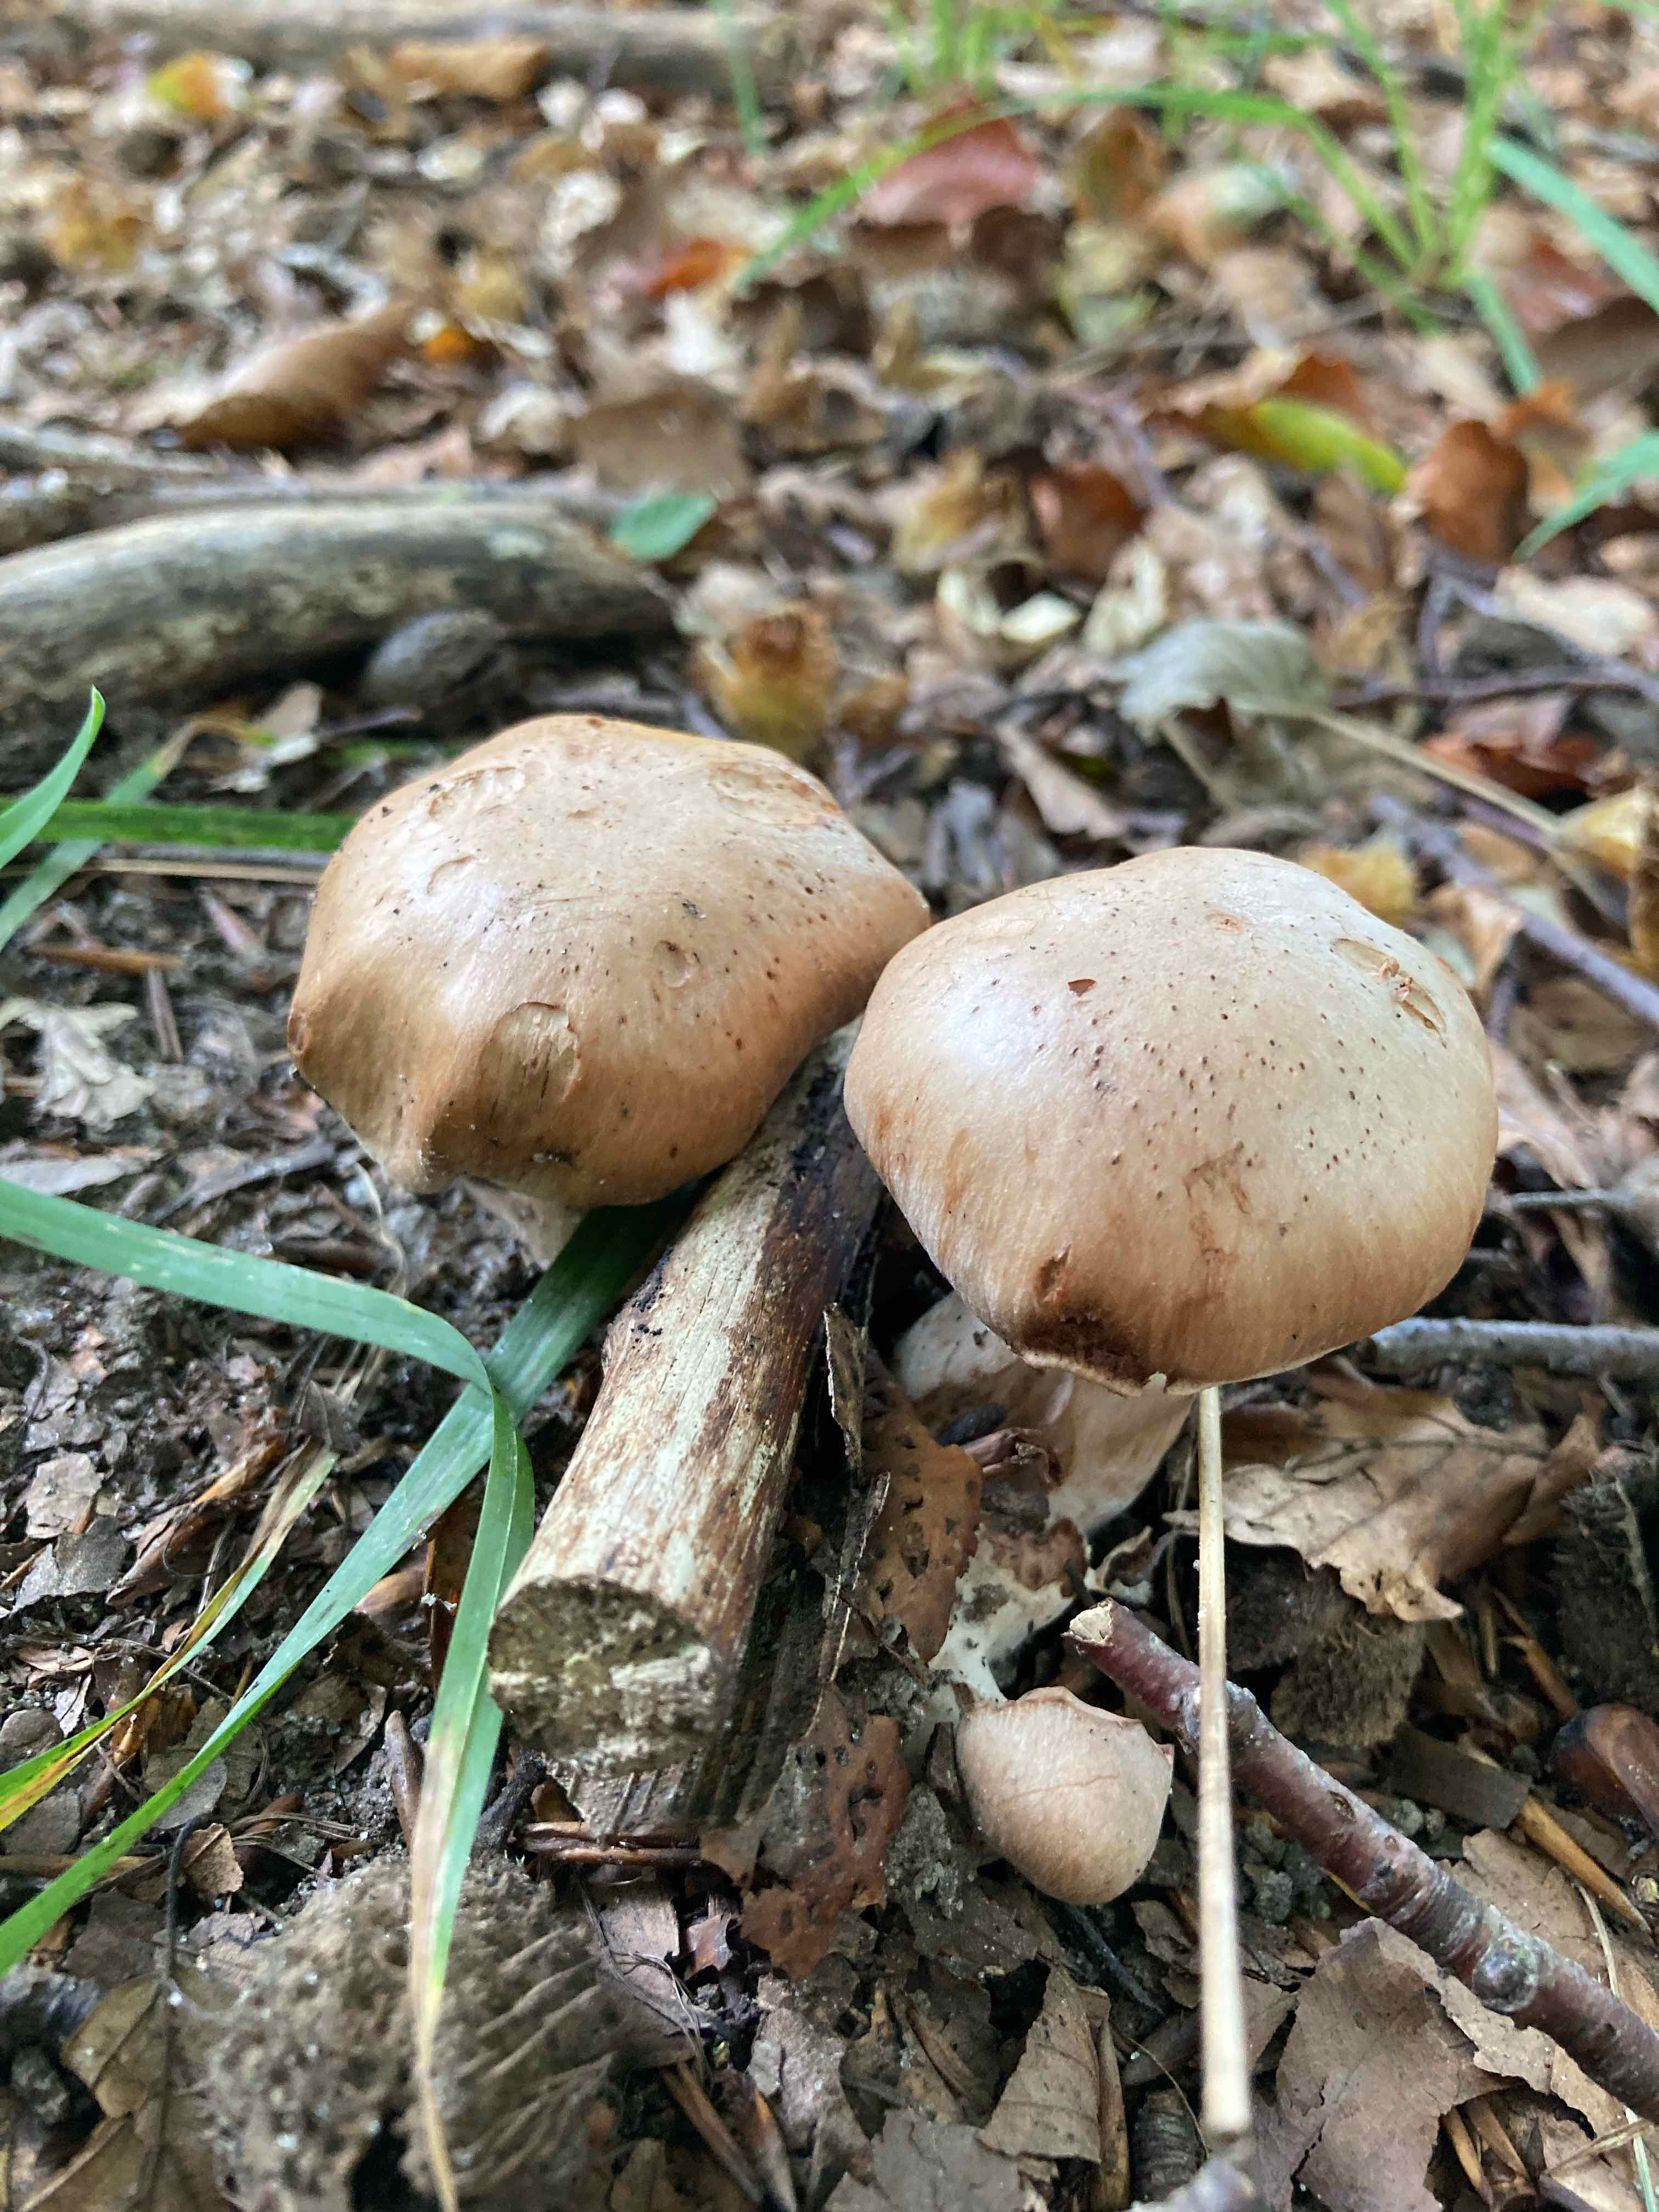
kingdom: Fungi
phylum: Basidiomycota
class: Agaricomycetes
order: Agaricales
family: Cortinariaceae
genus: Cortinarius
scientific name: Cortinarius
